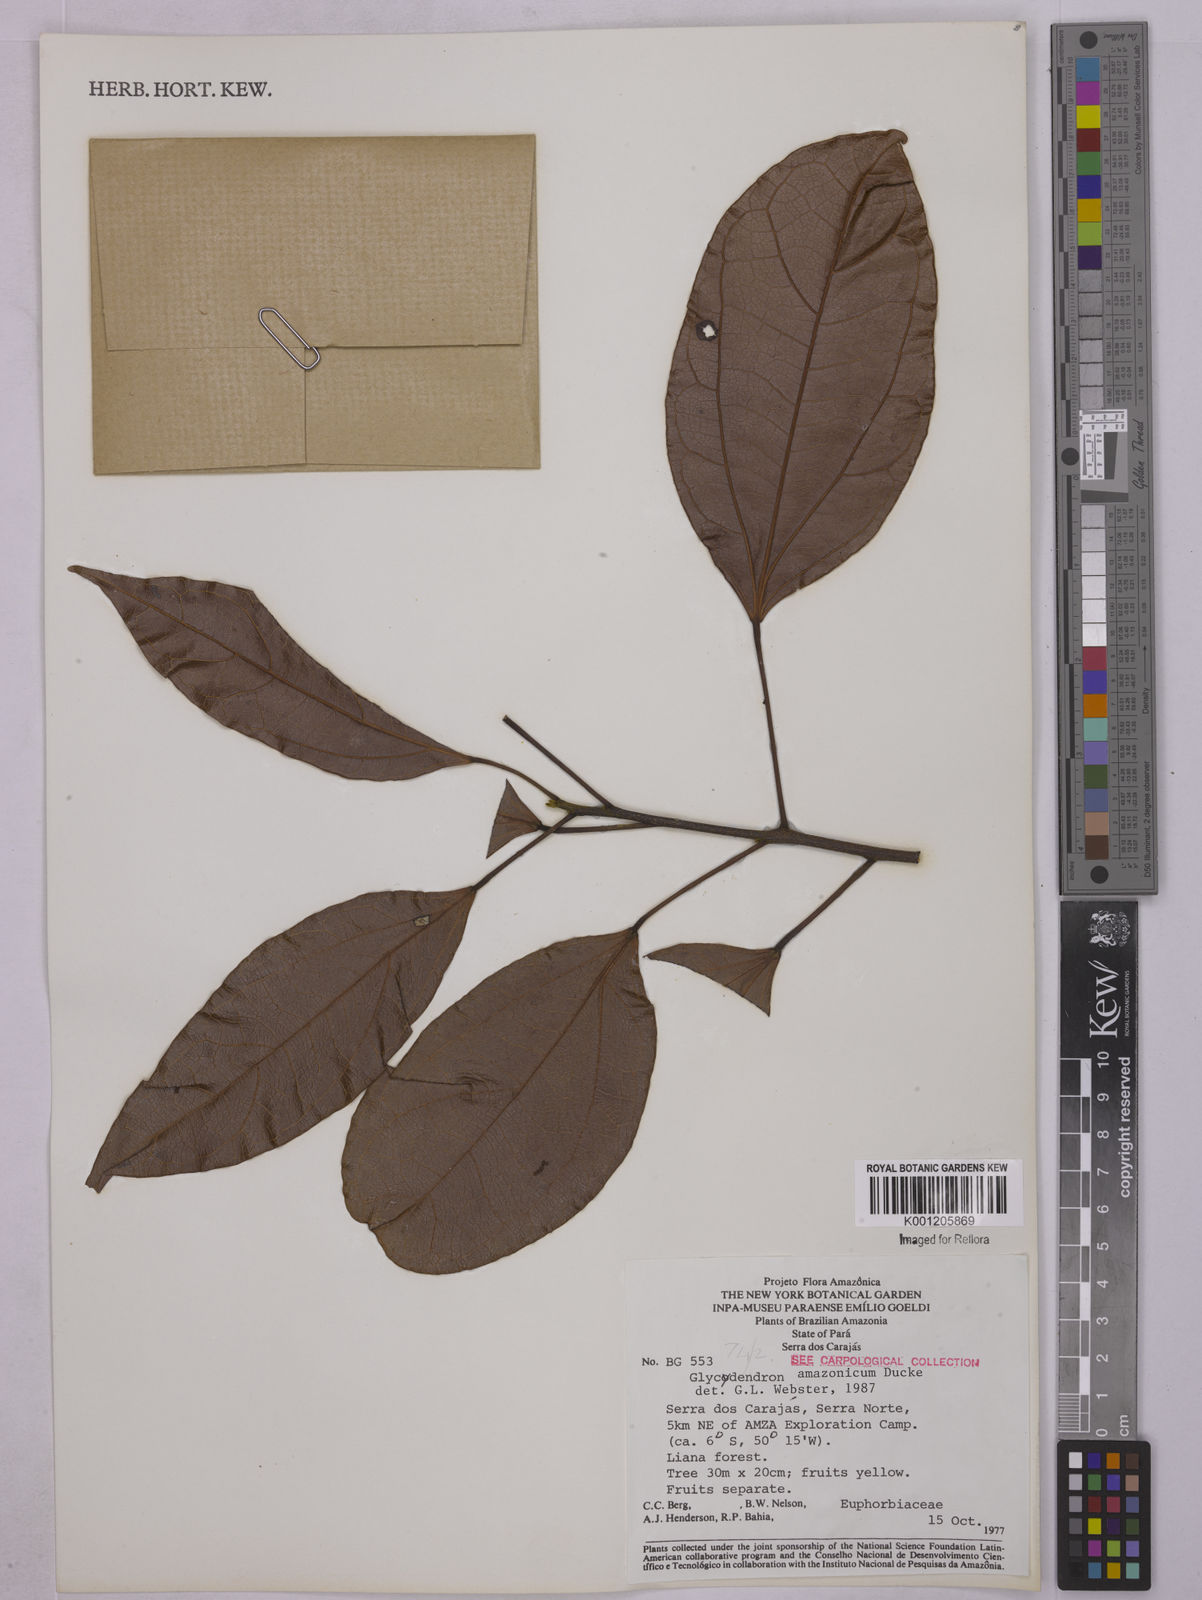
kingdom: Plantae
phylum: Tracheophyta
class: Magnoliopsida
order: Malpighiales
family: Euphorbiaceae
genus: Glycydendron
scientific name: Glycydendron amazonicum
